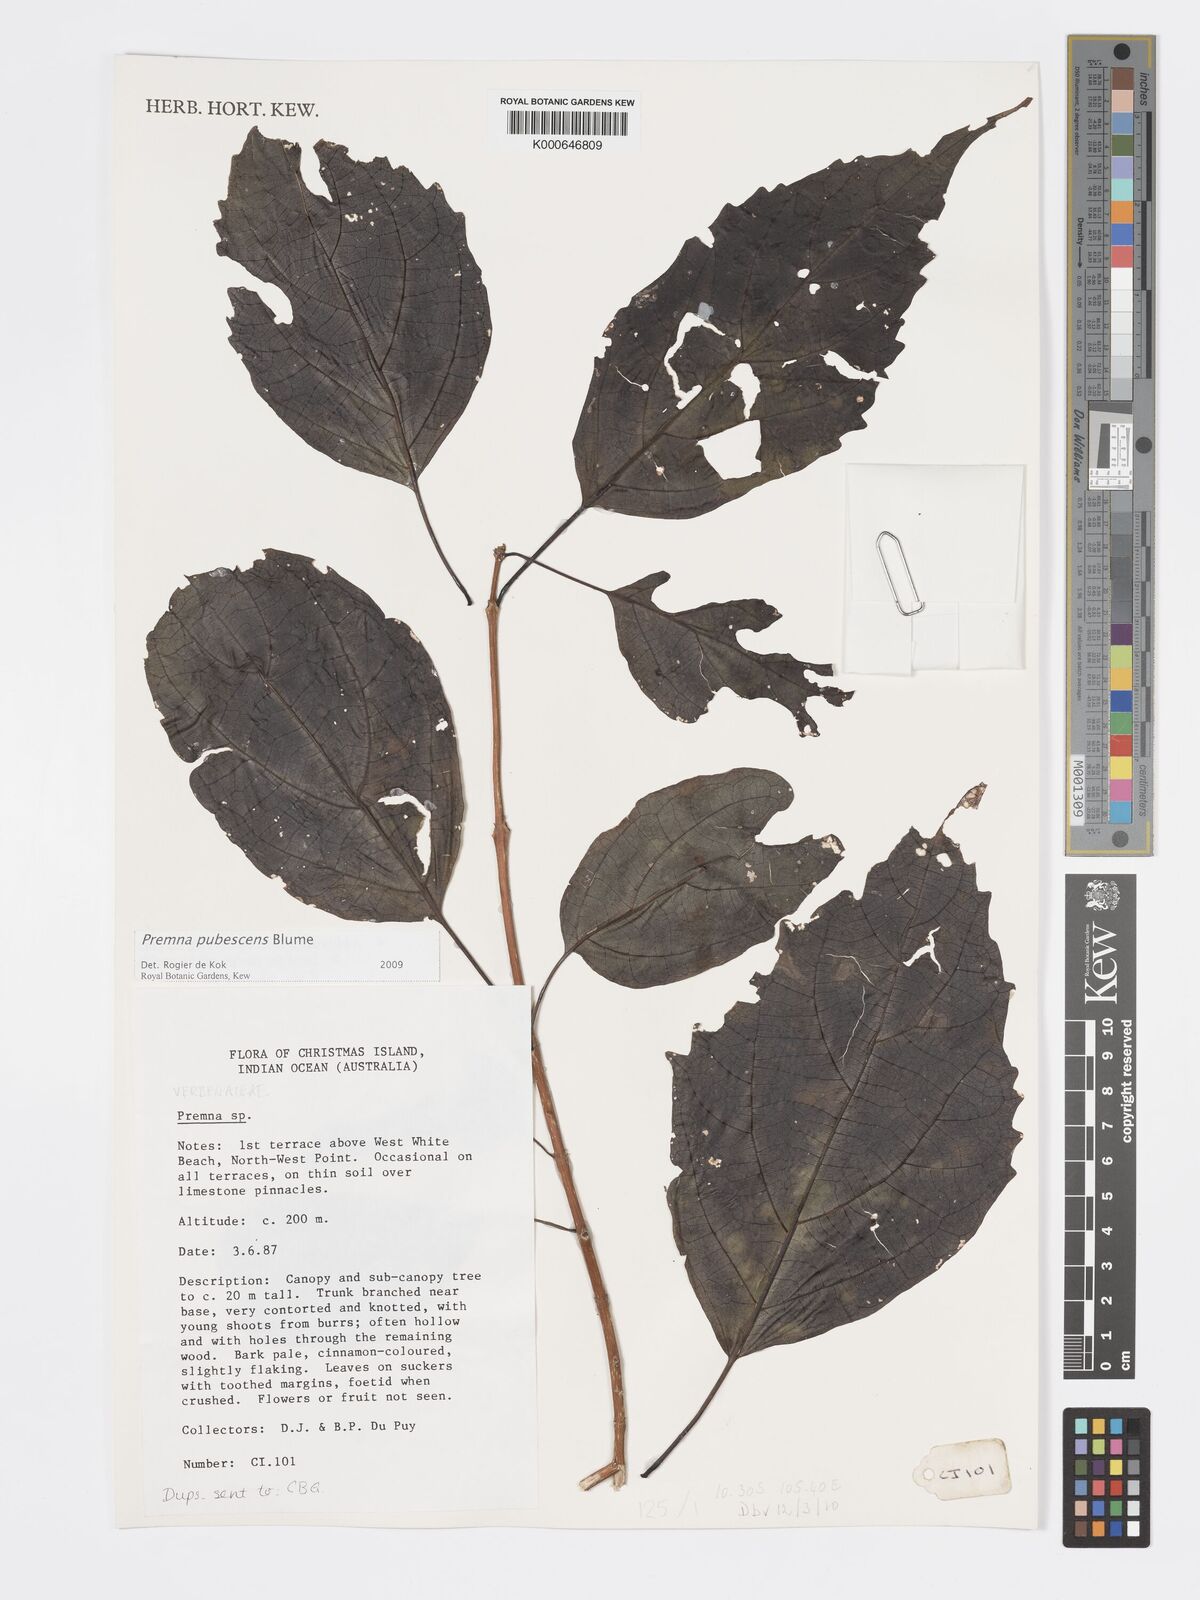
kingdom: Plantae
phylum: Tracheophyta
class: Magnoliopsida
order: Lamiales
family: Lamiaceae
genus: Premna
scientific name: Premna
